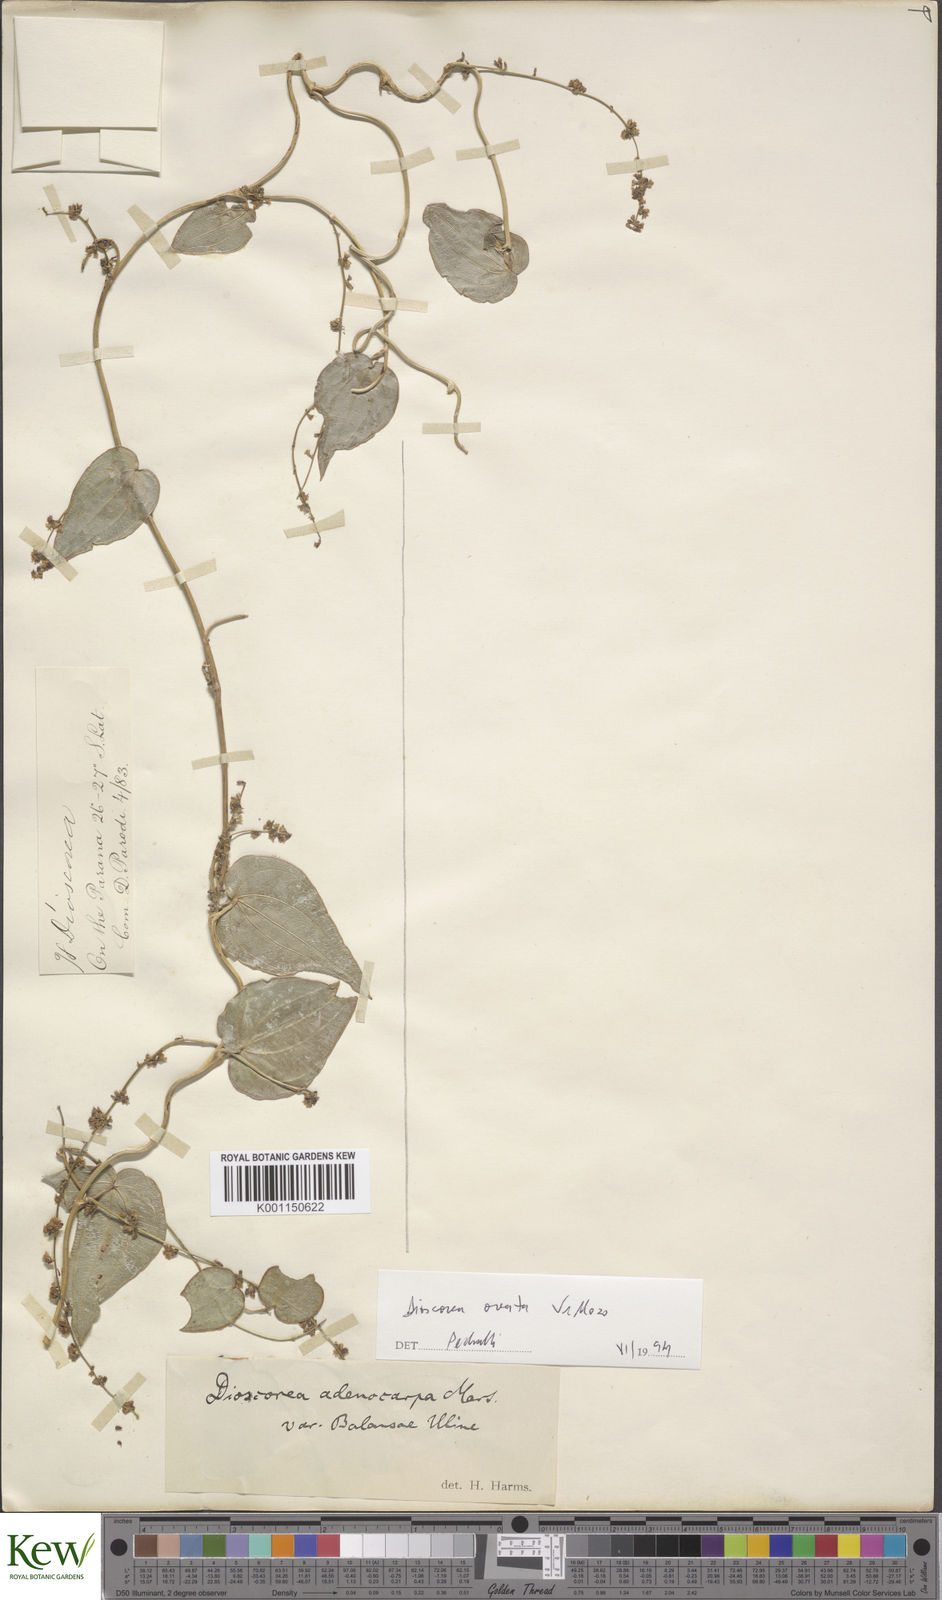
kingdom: Plantae
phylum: Tracheophyta
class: Liliopsida
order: Dioscoreales
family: Dioscoreaceae
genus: Dioscorea
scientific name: Dioscorea ovata
